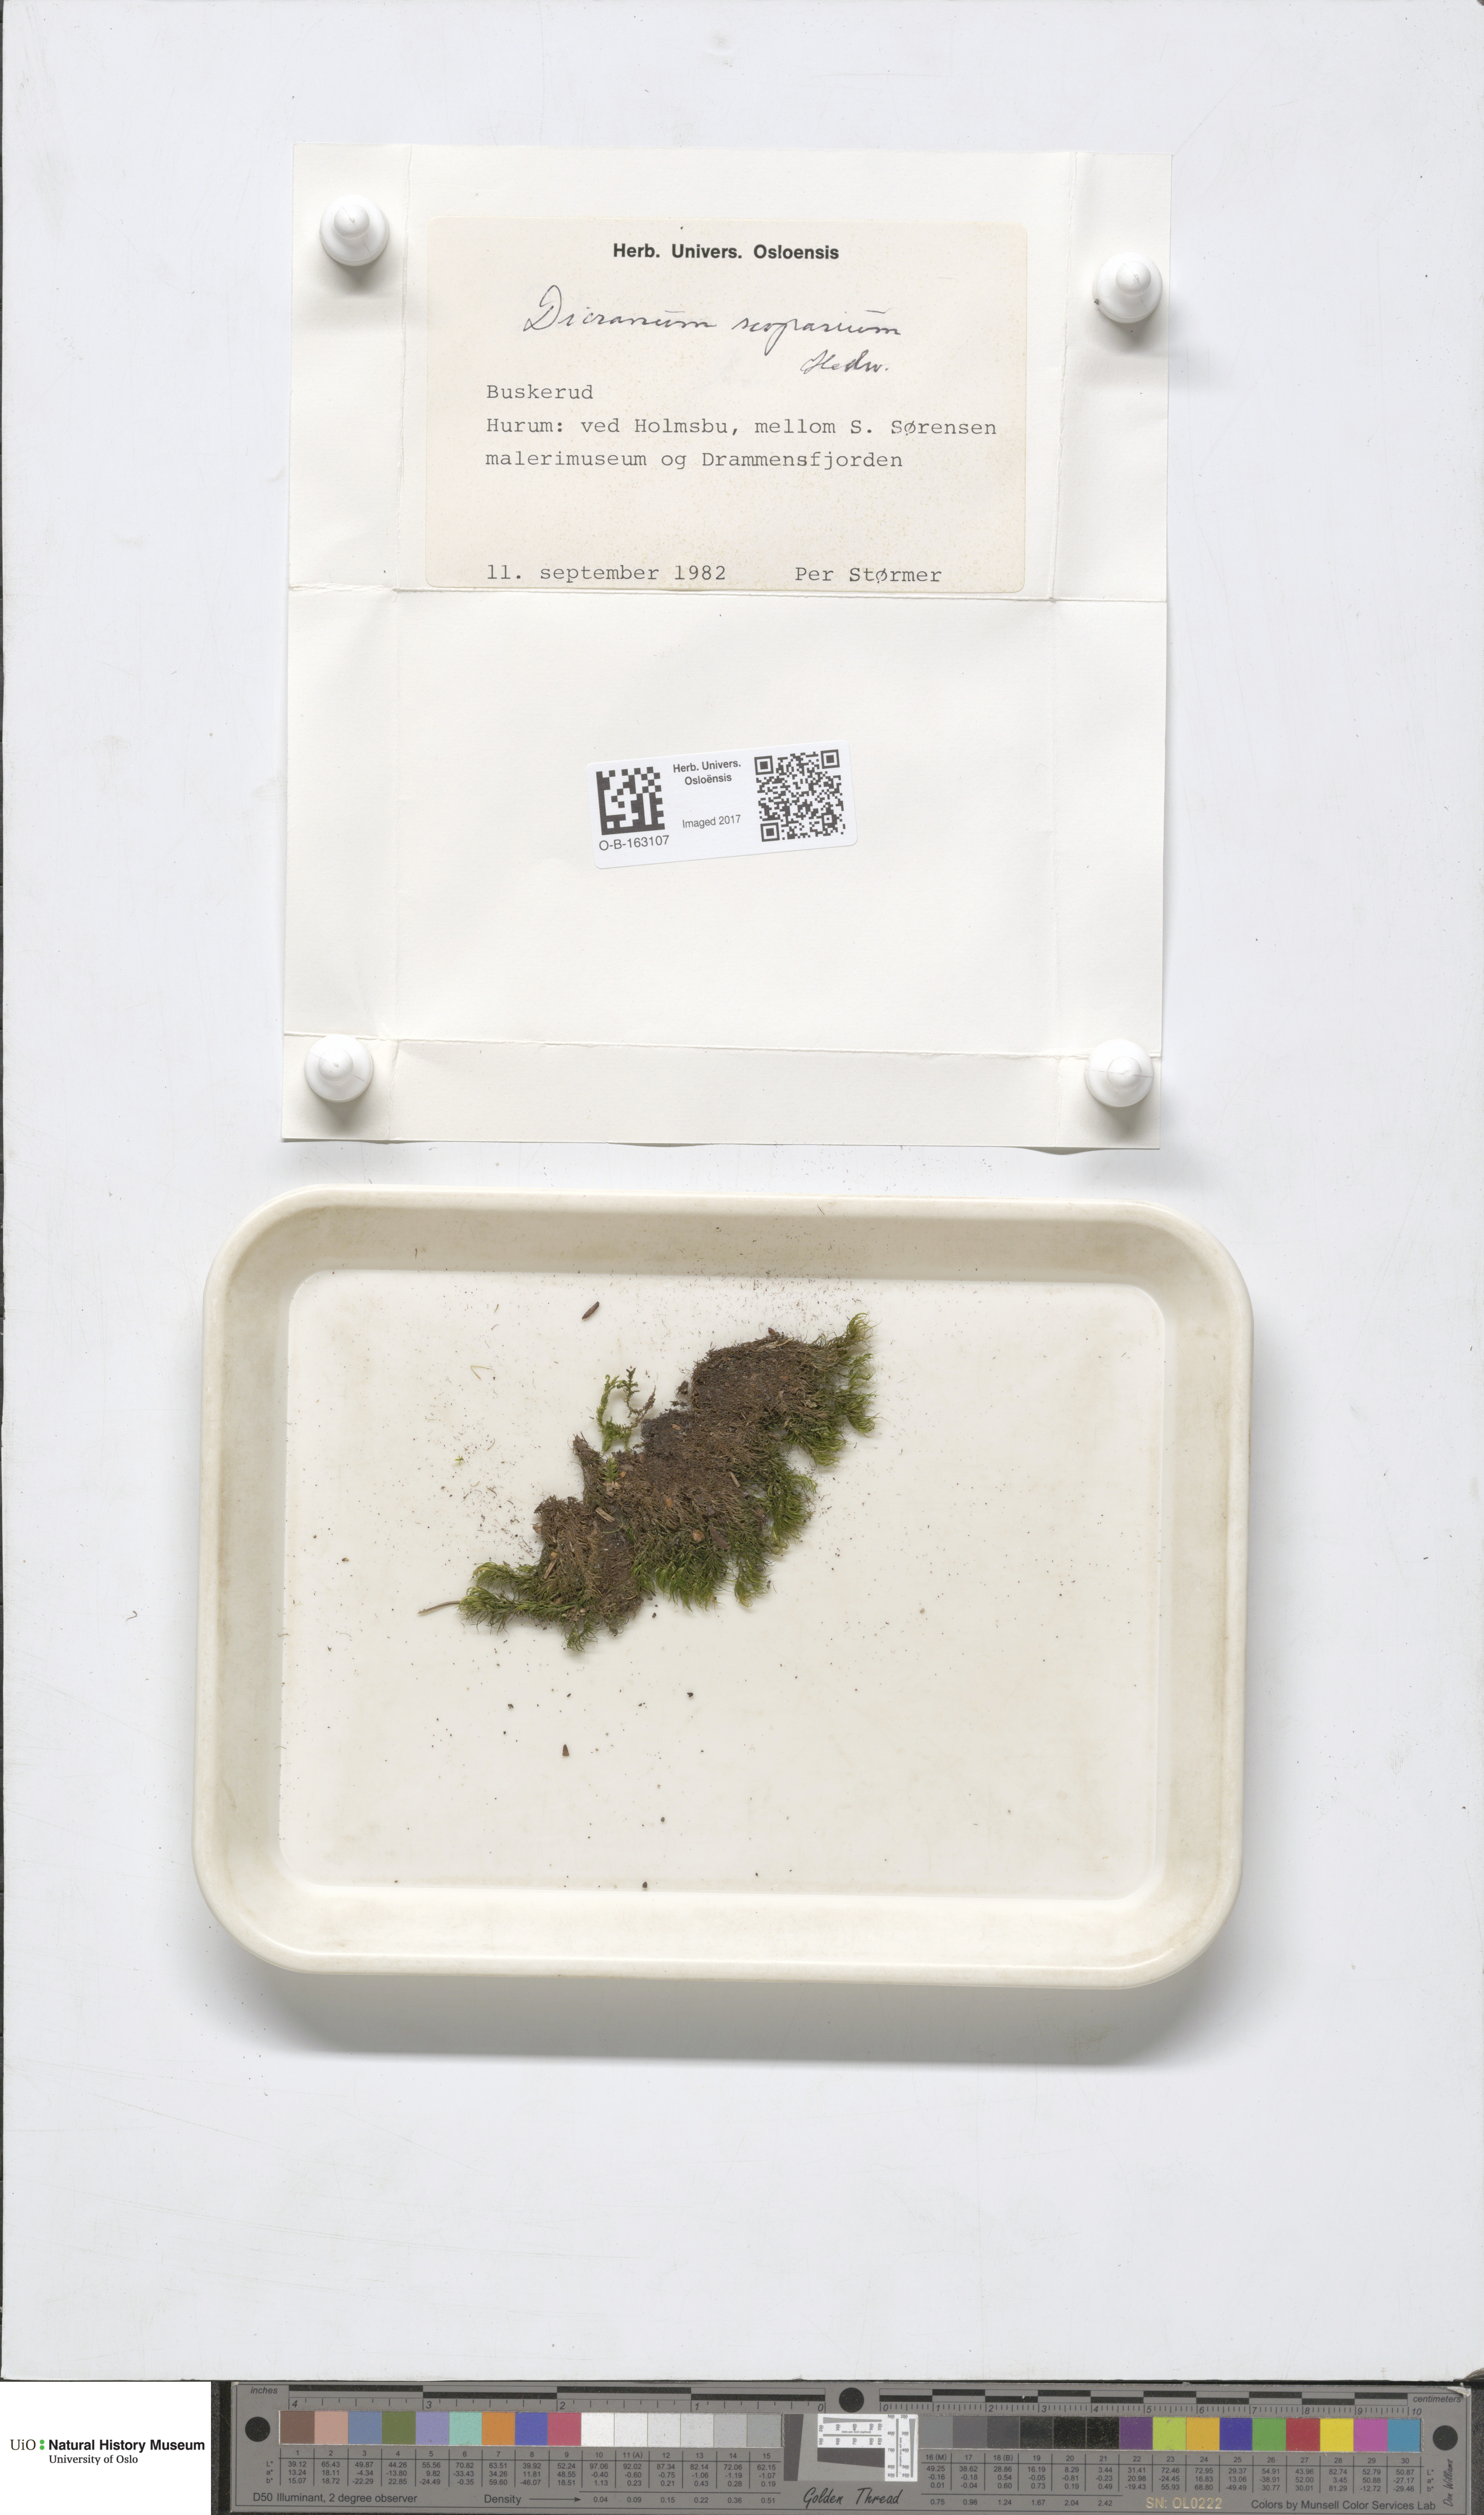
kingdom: Plantae
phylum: Bryophyta
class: Bryopsida
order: Dicranales
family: Dicranaceae
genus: Dicranum
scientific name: Dicranum scoparium
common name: Broom fork-moss
